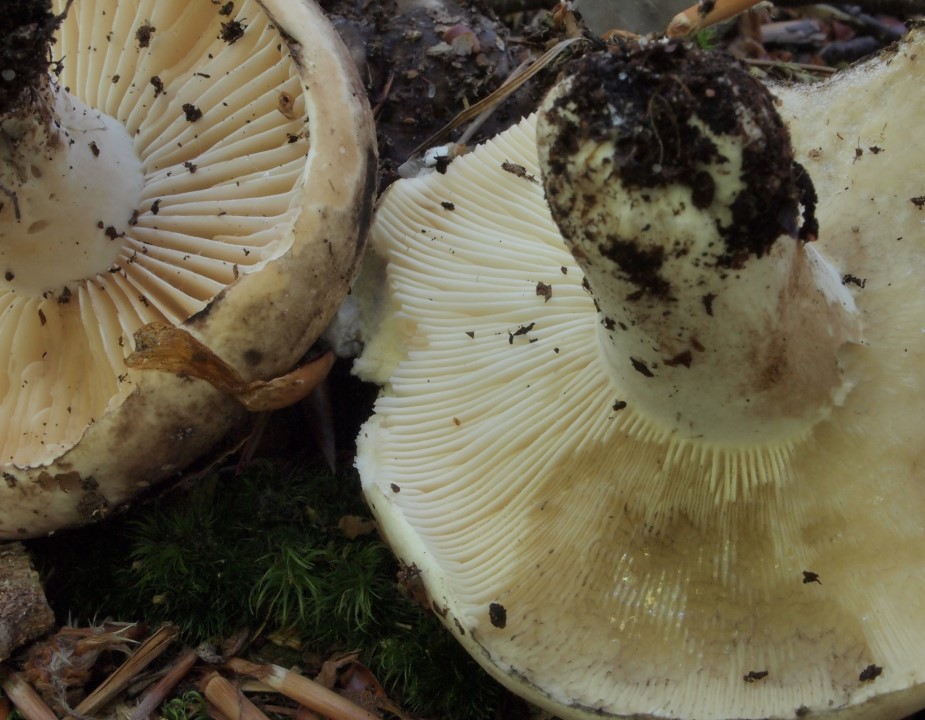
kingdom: Fungi
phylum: Basidiomycota
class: Agaricomycetes
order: Russulales
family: Russulaceae
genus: Russula
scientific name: Russula densifolia
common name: tætbladet skørhat
